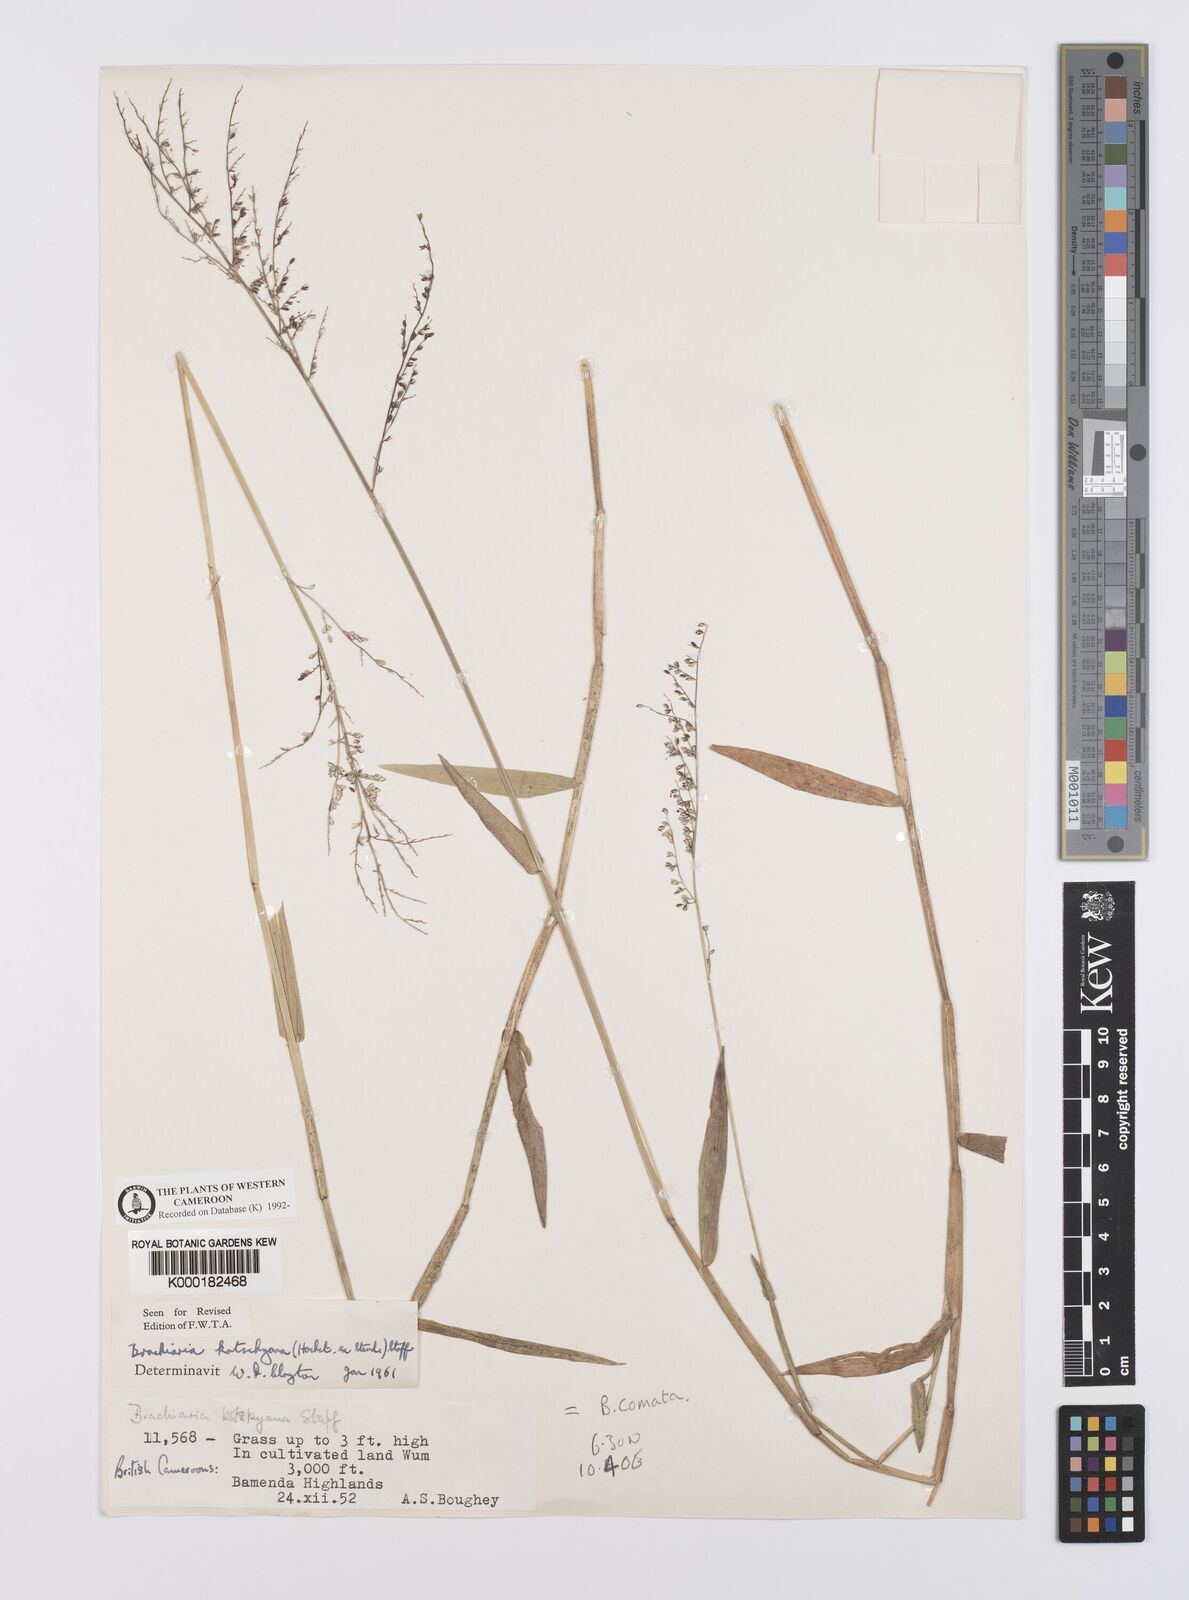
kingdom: Plantae
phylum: Tracheophyta
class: Liliopsida
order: Poales
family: Poaceae
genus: Urochloa
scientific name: Urochloa comata
